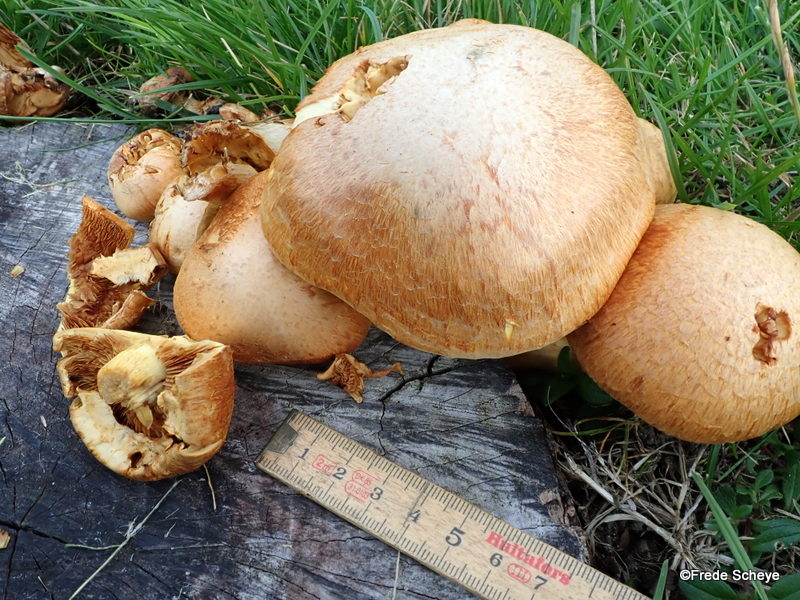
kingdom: Fungi
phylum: Basidiomycota
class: Agaricomycetes
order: Agaricales
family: Hymenogastraceae
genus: Gymnopilus
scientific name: Gymnopilus spectabilis
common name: fibret flammehat
